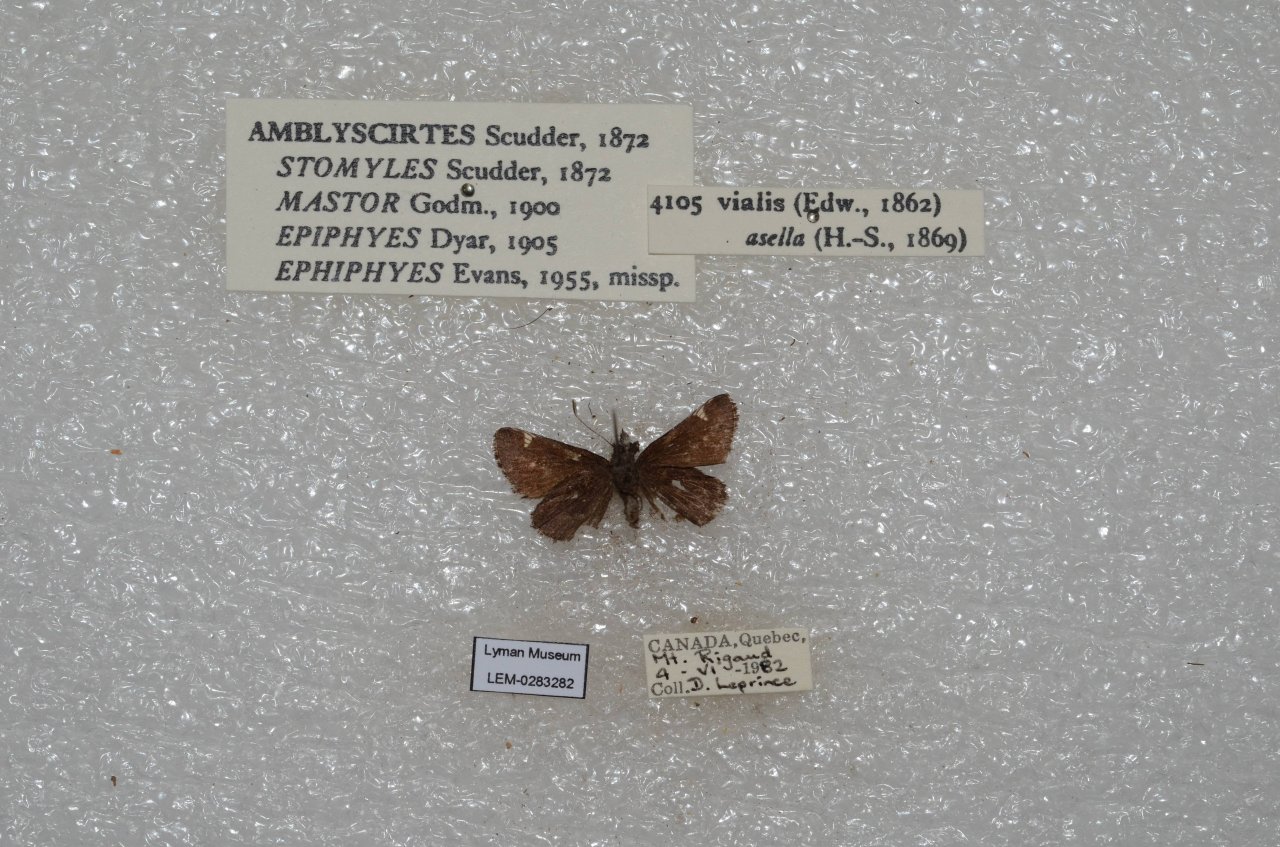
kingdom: Animalia
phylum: Arthropoda
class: Insecta
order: Lepidoptera
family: Hesperiidae
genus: Mastor
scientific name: Mastor vialis
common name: Common Roadside-Skipper
